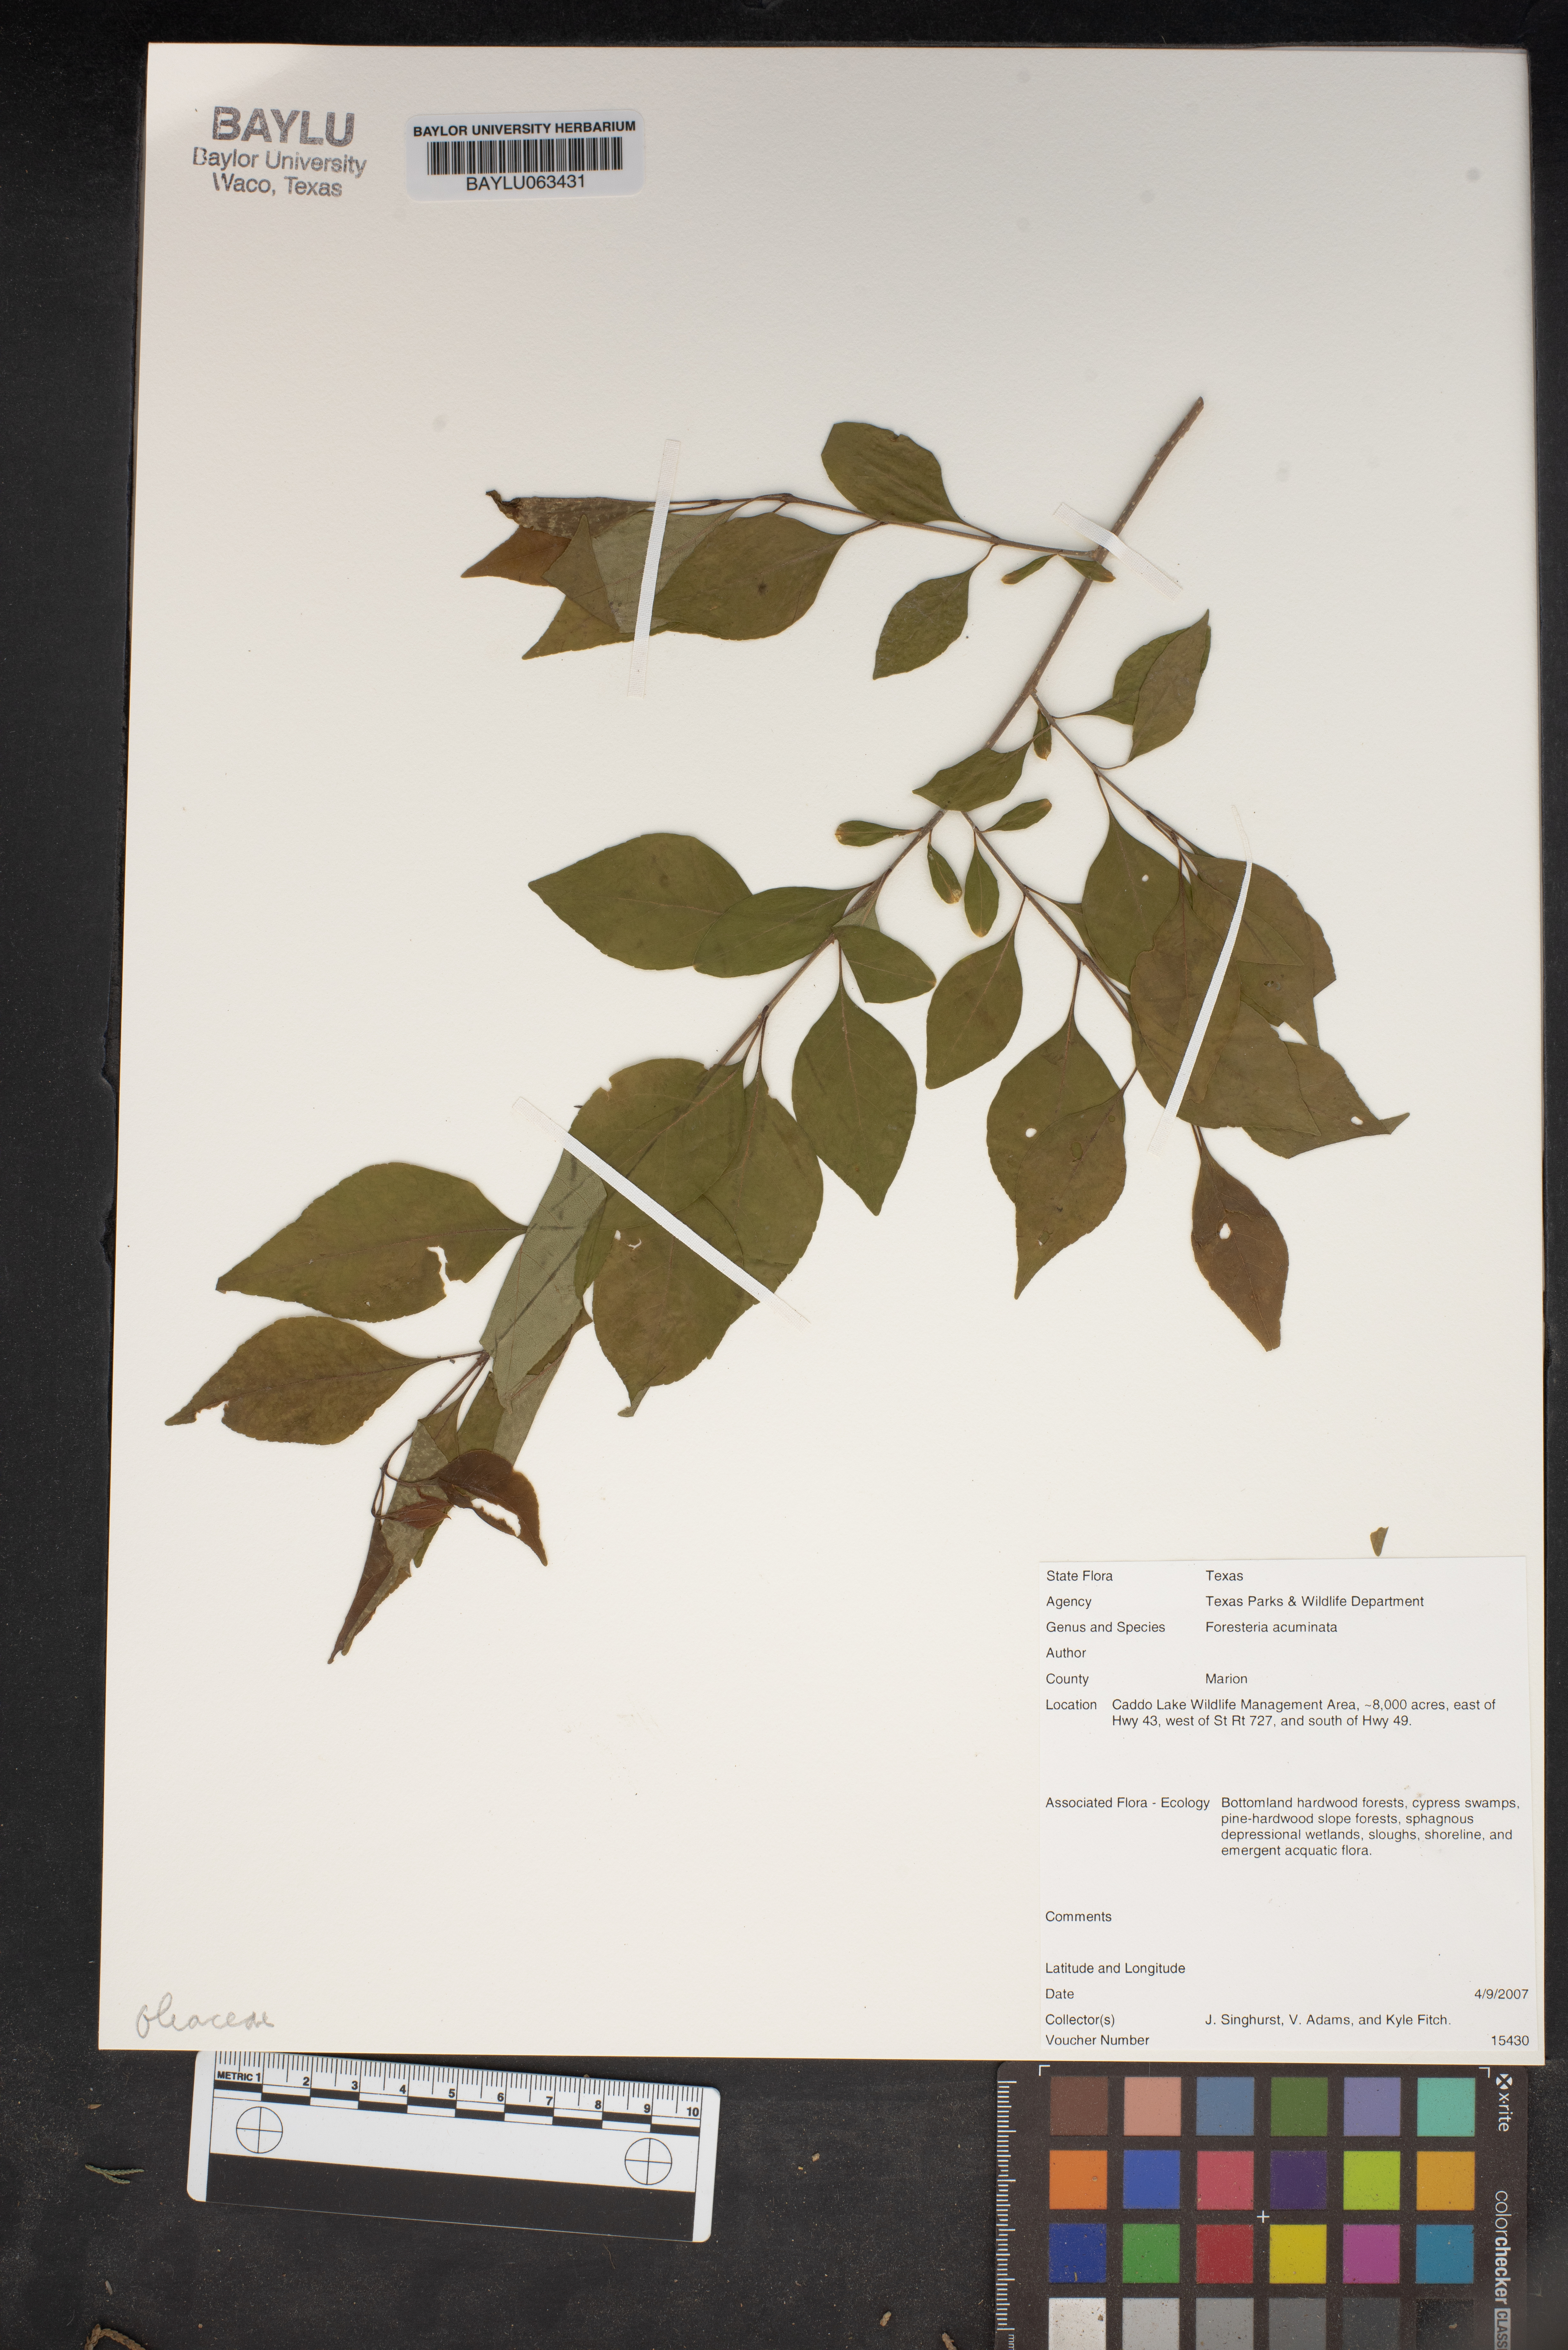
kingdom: Plantae
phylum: Tracheophyta
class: Magnoliopsida
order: Lamiales
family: Oleaceae
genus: Forestiera
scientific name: Forestiera acuminata
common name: Swamp-privet
